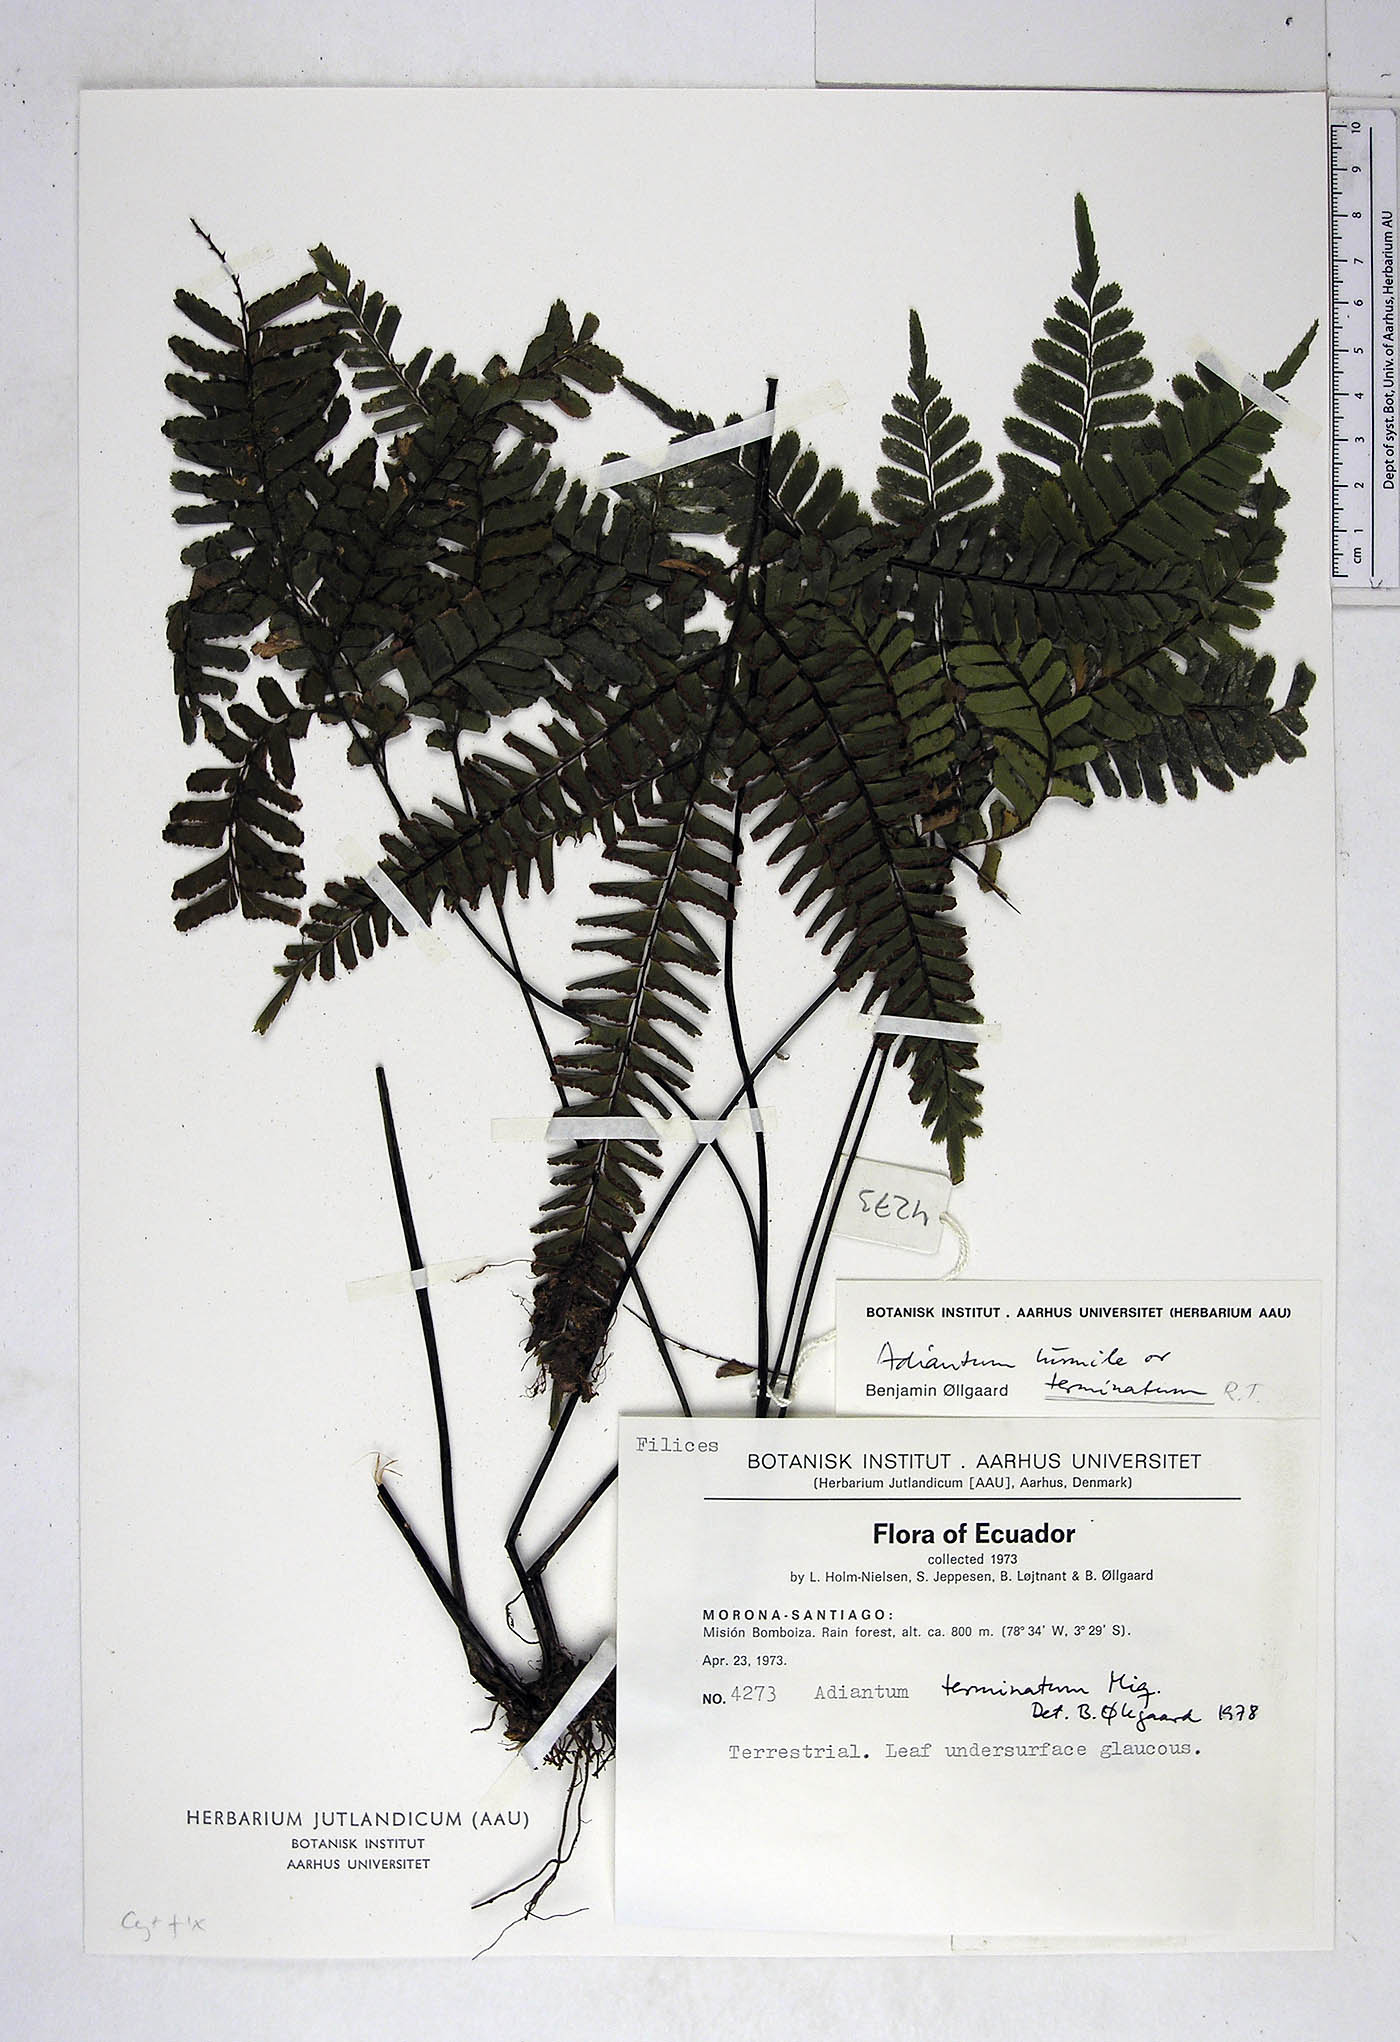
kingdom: Plantae
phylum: Tracheophyta
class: Polypodiopsida
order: Polypodiales
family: Pteridaceae
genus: Adiantum
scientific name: Adiantum terminatum
